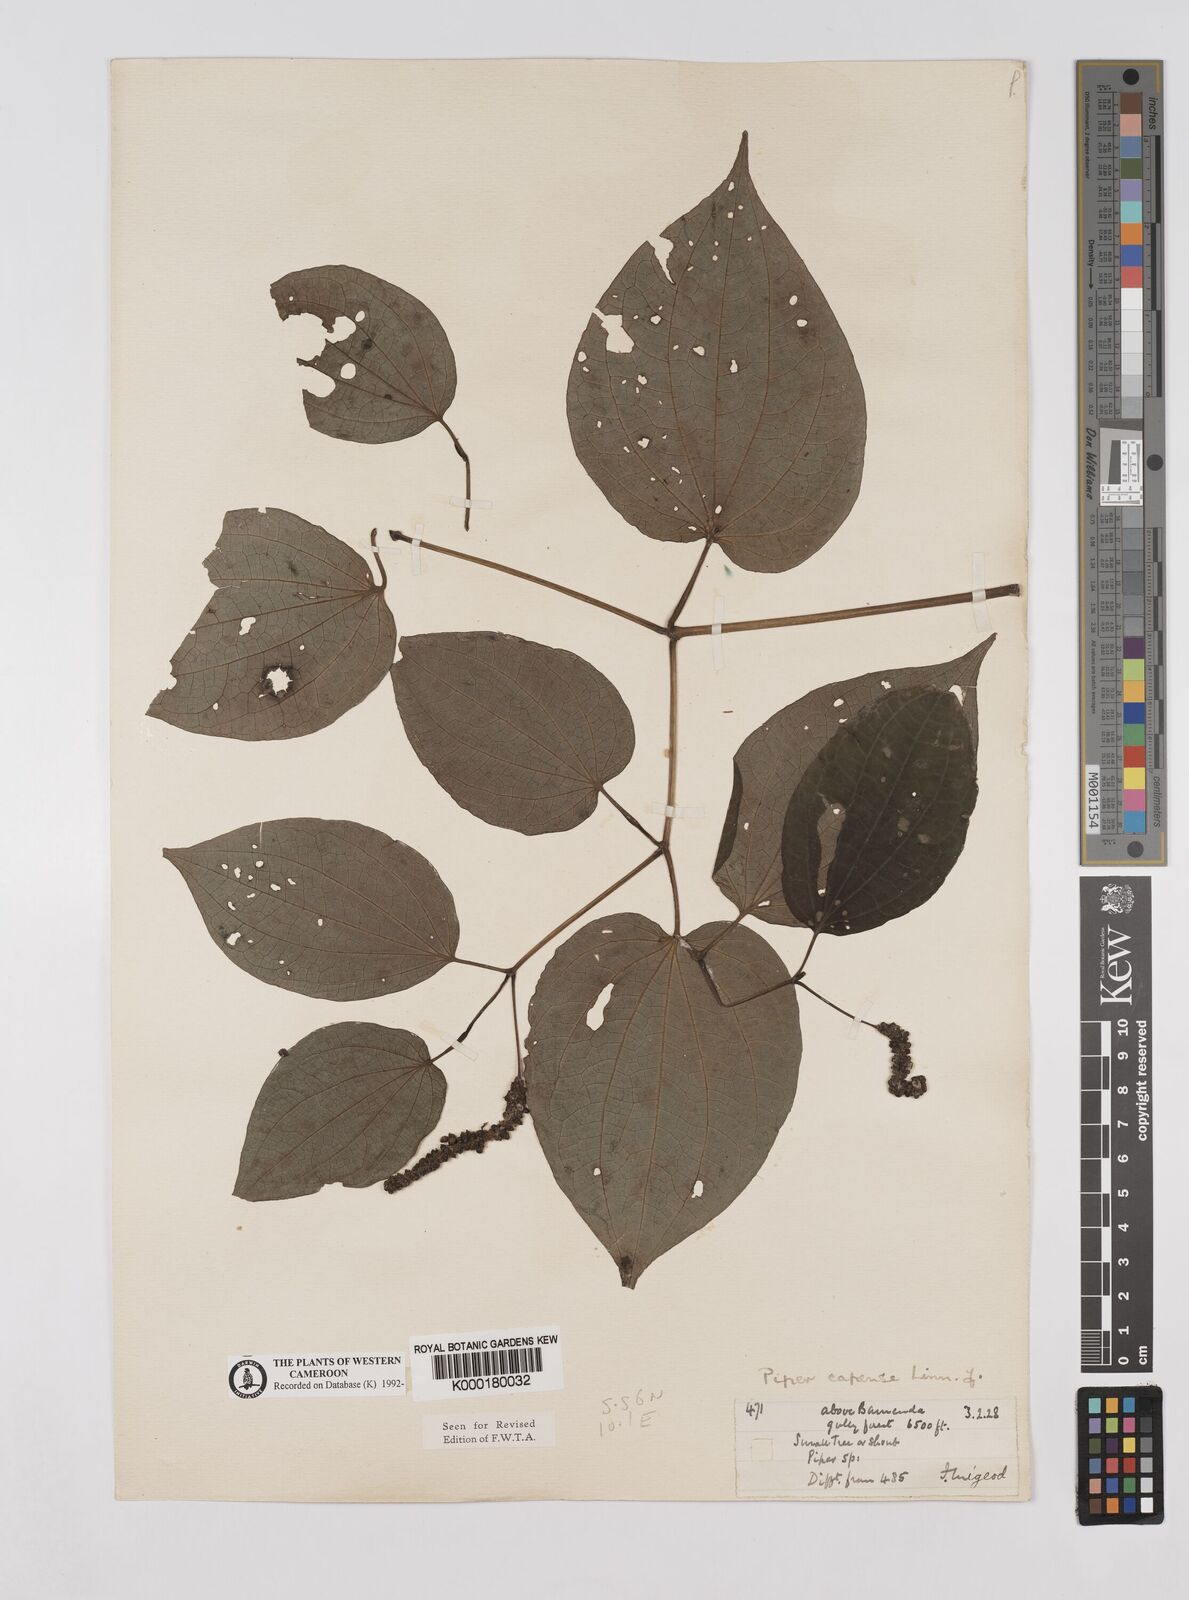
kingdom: Plantae
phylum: Tracheophyta
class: Magnoliopsida
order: Piperales
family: Piperaceae
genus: Piper
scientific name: Piper capense
